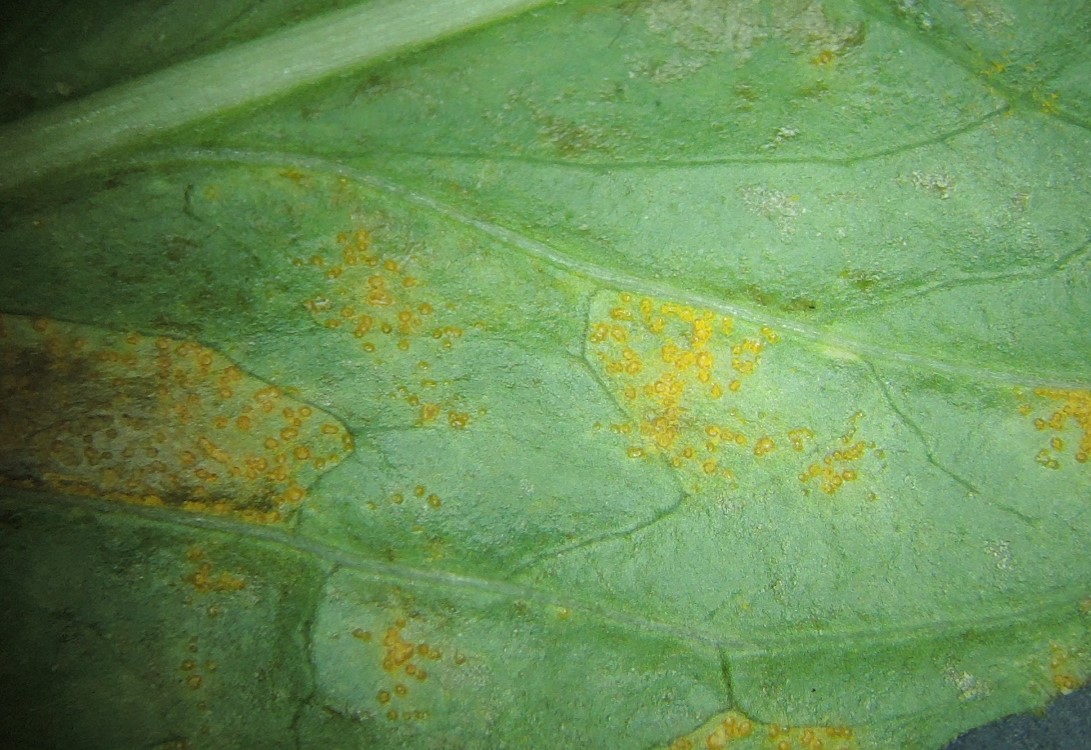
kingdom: Fungi
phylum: Basidiomycota
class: Pucciniomycetes
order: Pucciniales
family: Pucciniastraceae
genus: Pucciniastrum
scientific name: Pucciniastrum epilobii
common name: dueurt-nålerust
